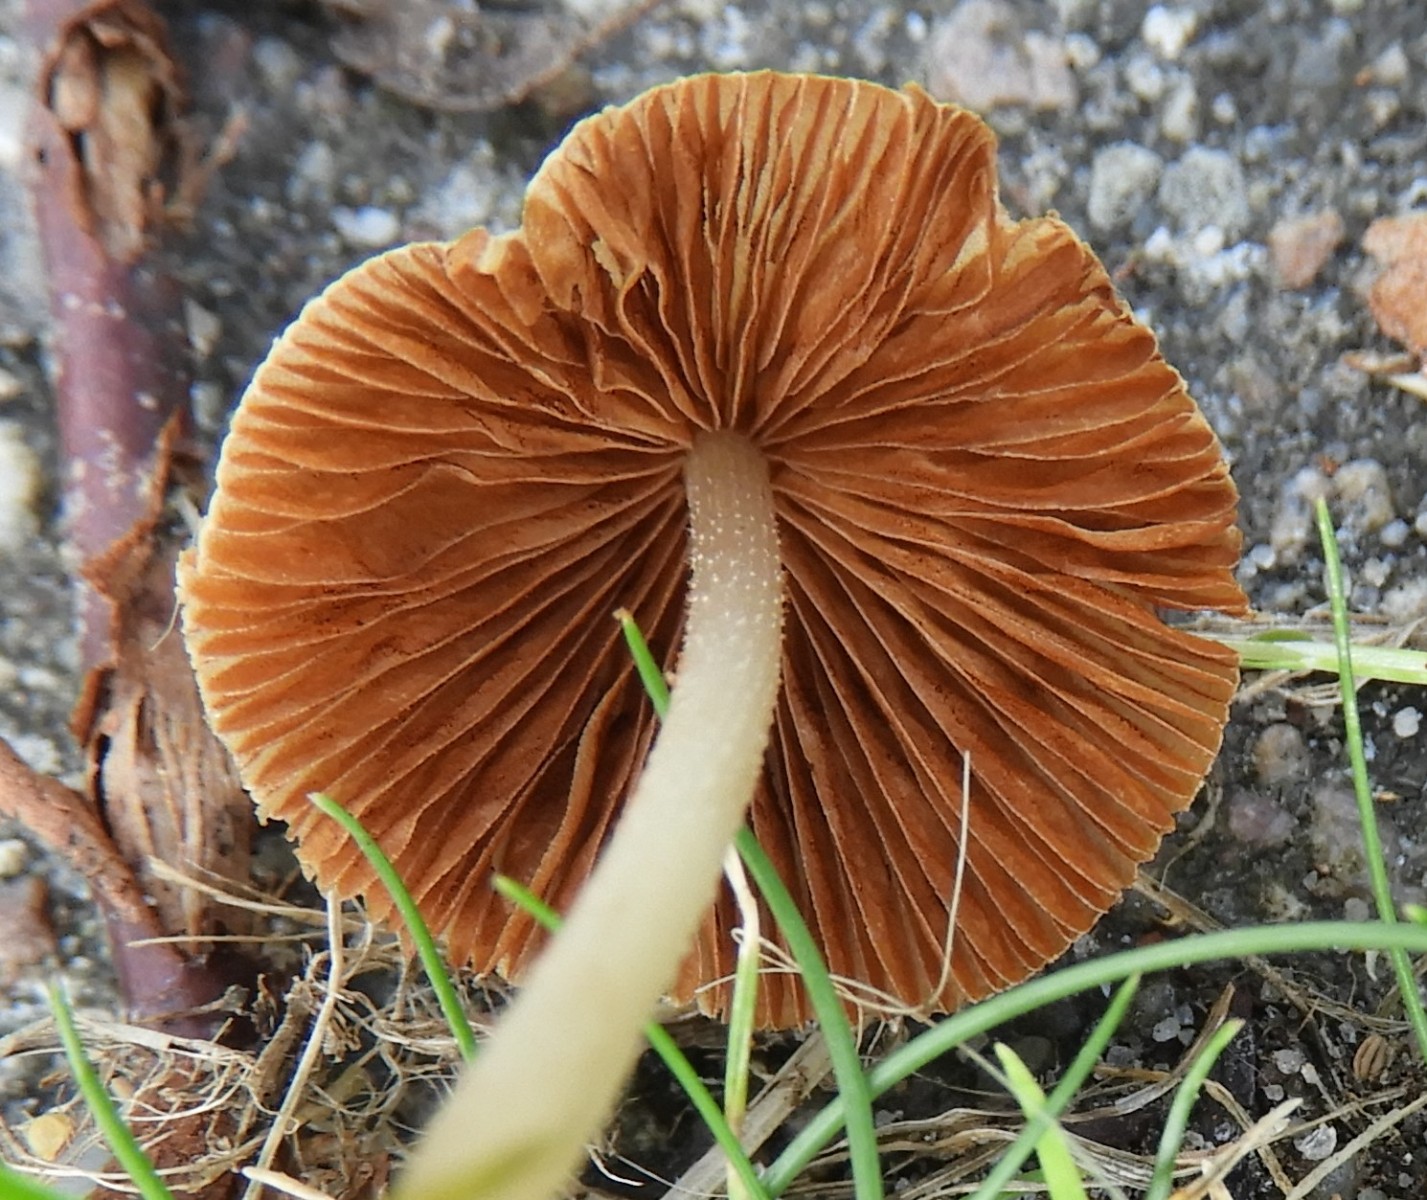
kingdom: Fungi
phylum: Basidiomycota
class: Agaricomycetes
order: Agaricales
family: Bolbitiaceae
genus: Conocybe
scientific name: Conocybe
